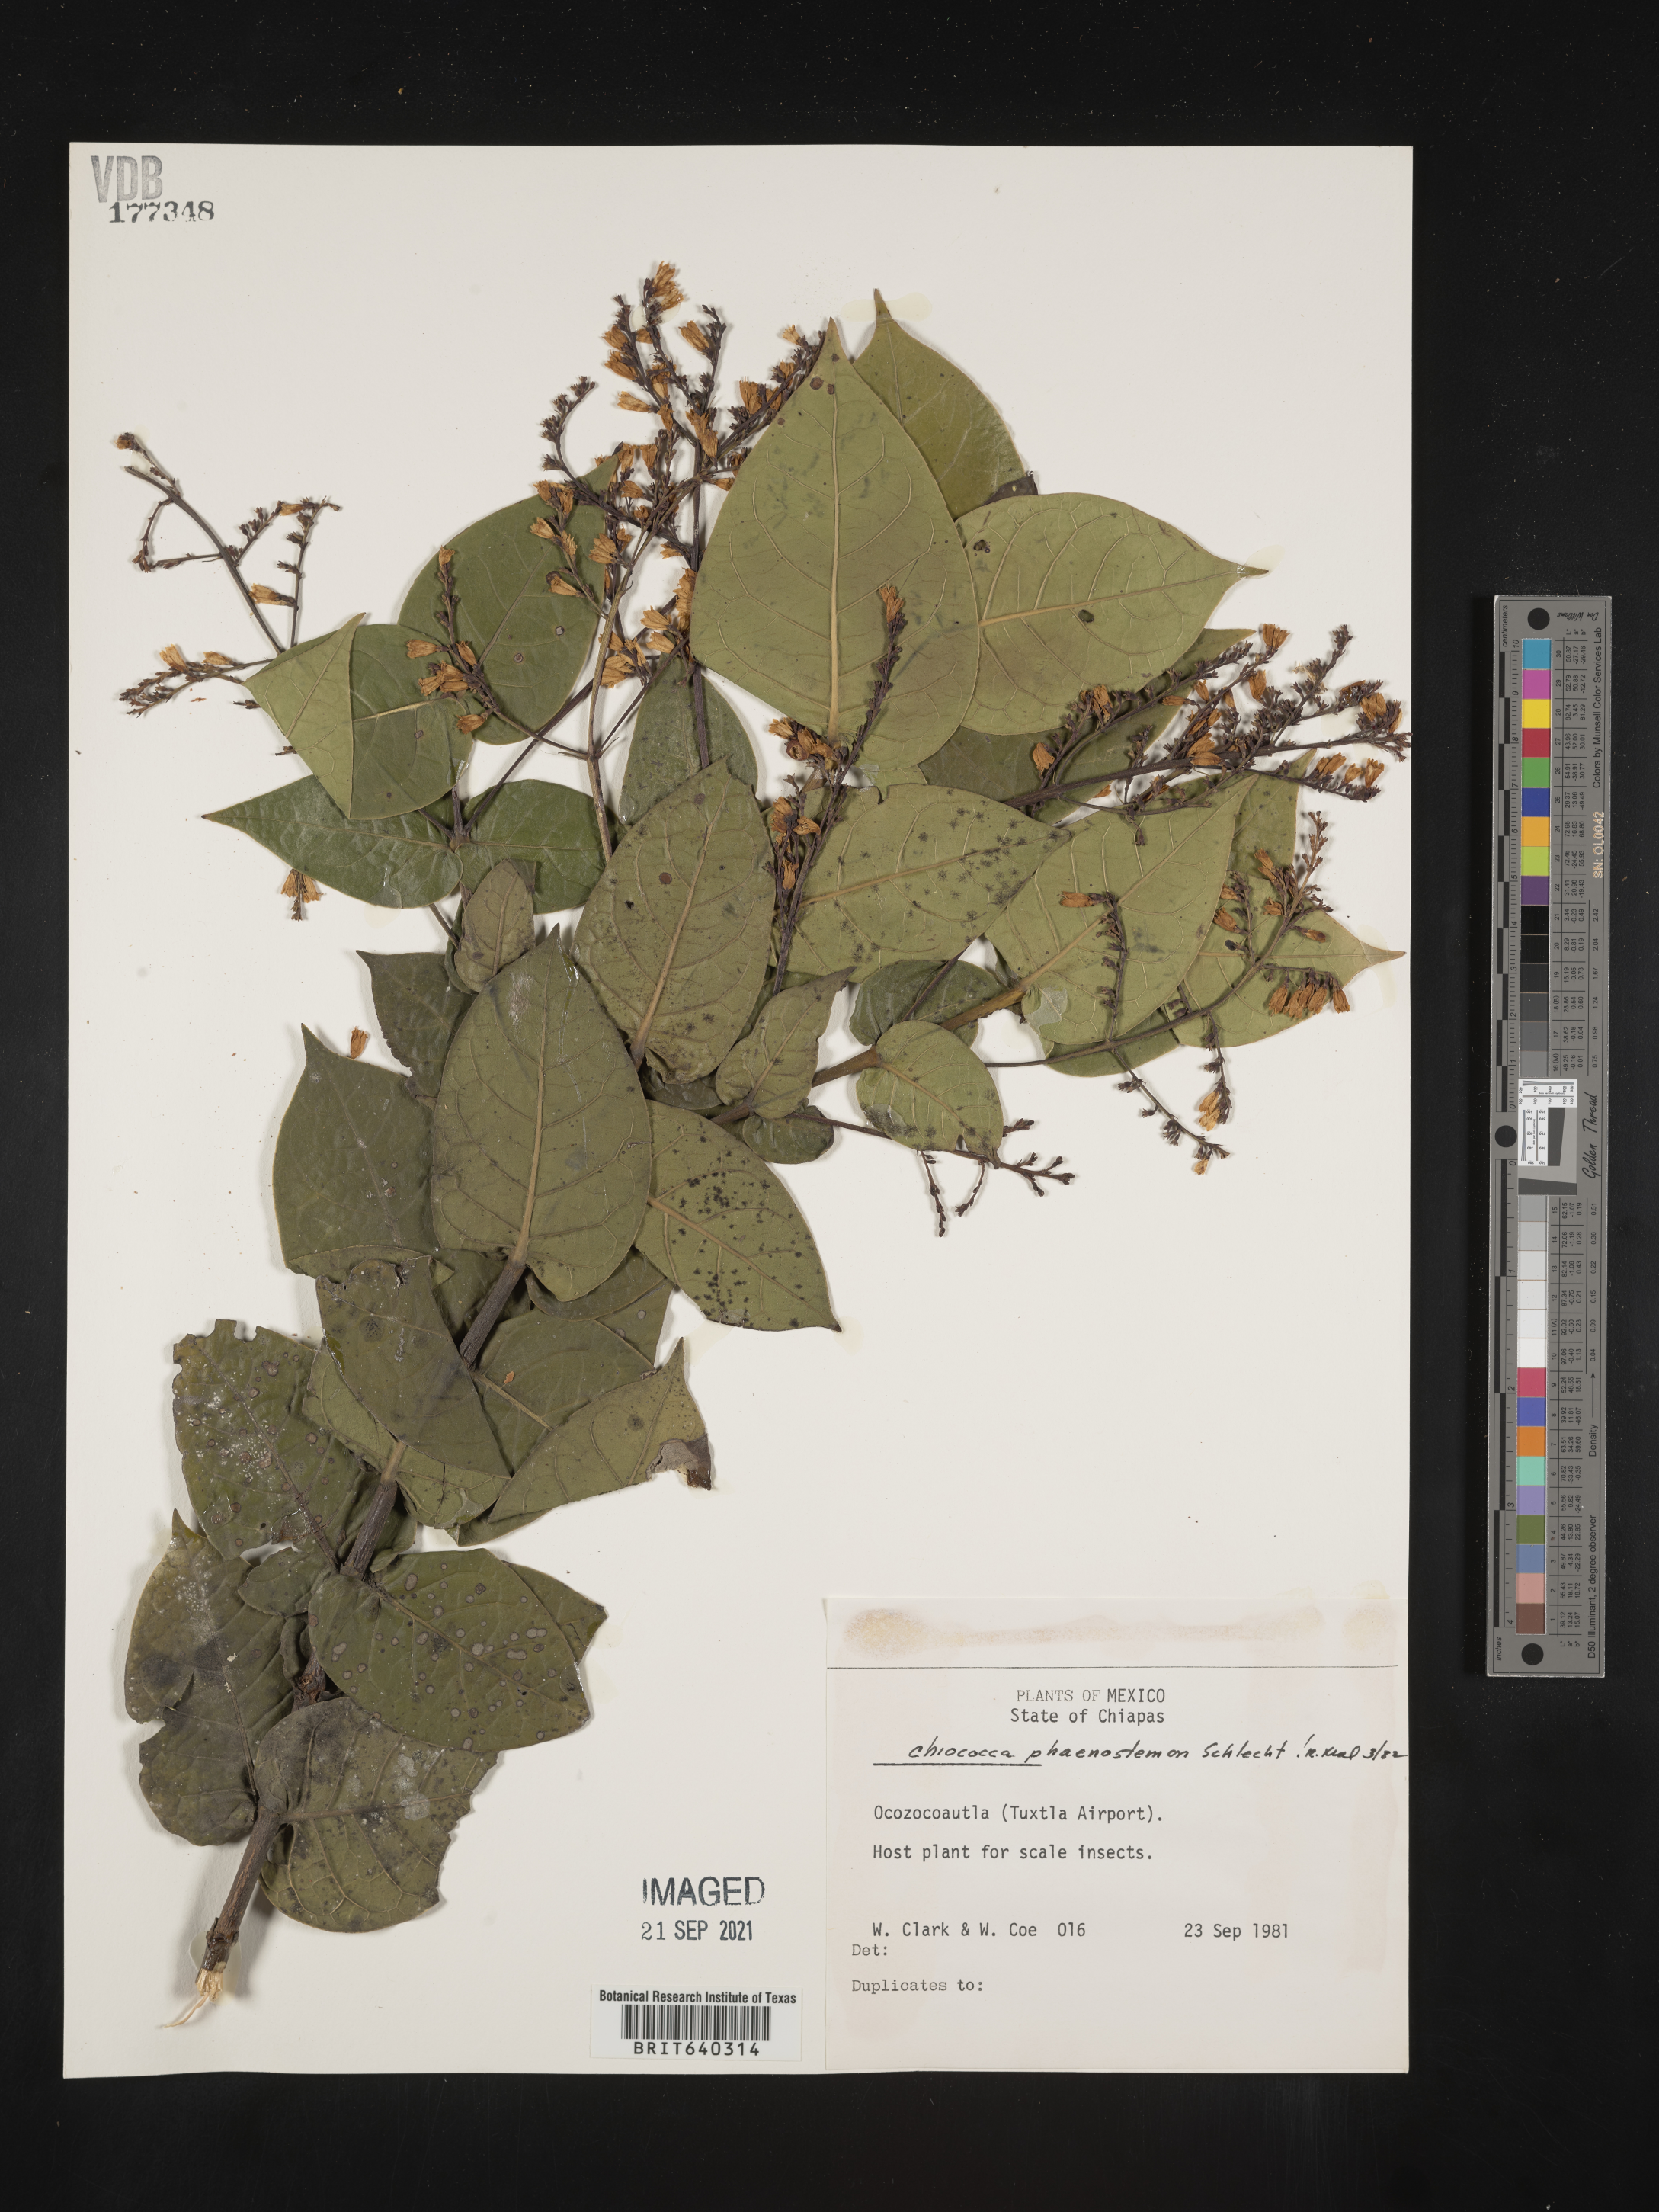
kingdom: Plantae
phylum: Tracheophyta
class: Magnoliopsida
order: Gentianales
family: Rubiaceae
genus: Chiococca
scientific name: Chiococca
